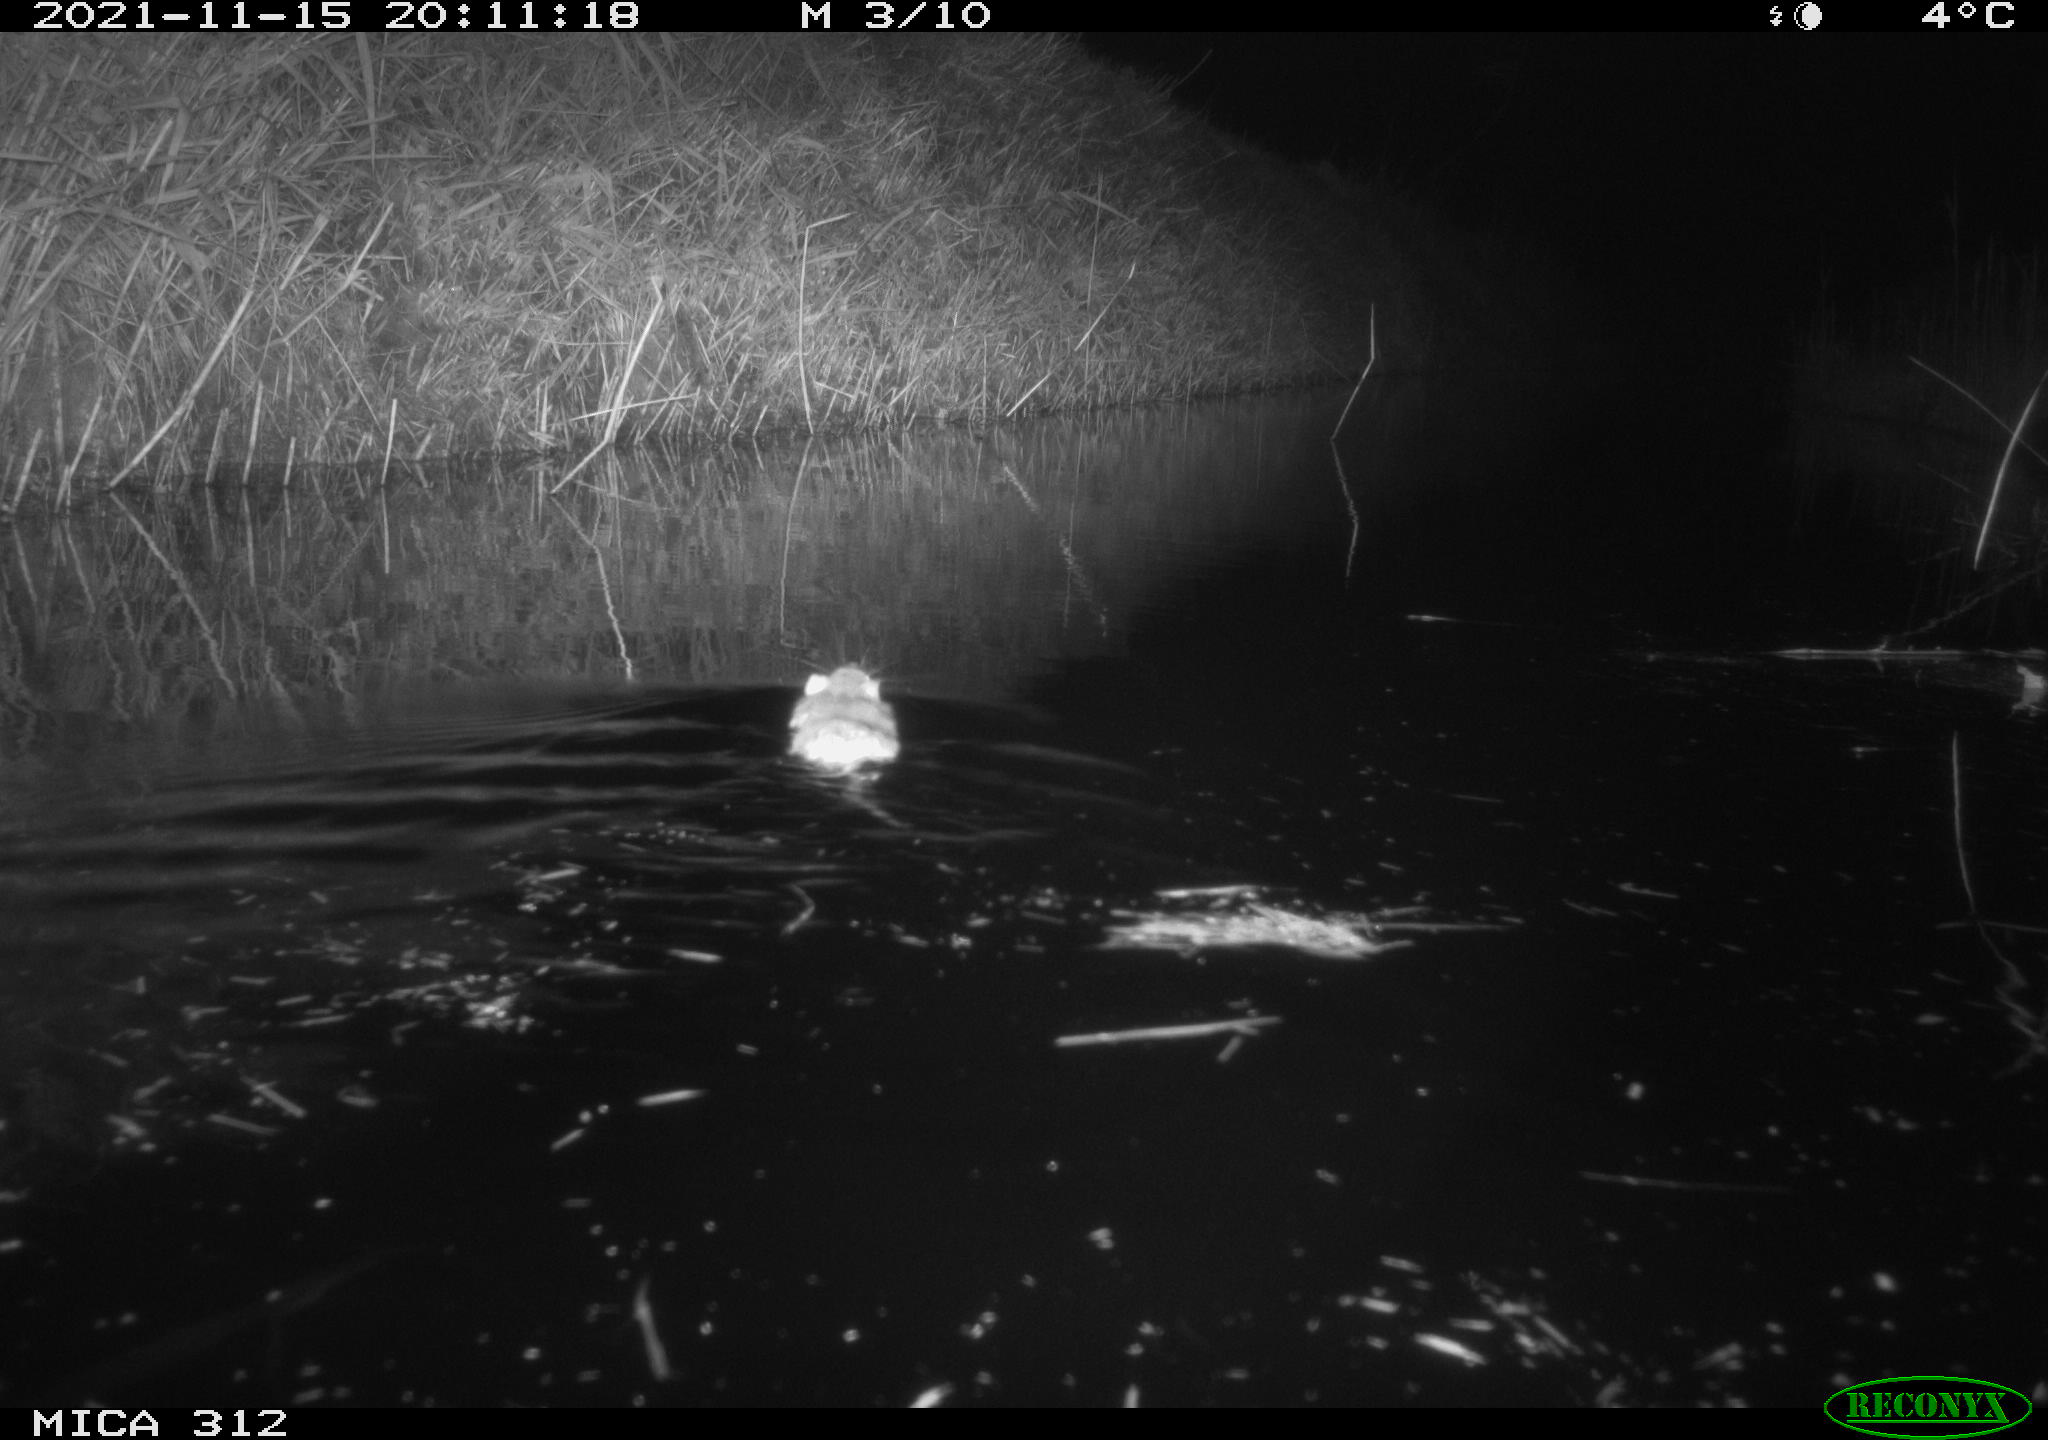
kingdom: Animalia
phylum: Chordata
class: Mammalia
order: Rodentia
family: Muridae
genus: Rattus
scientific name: Rattus norvegicus
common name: Brown rat
